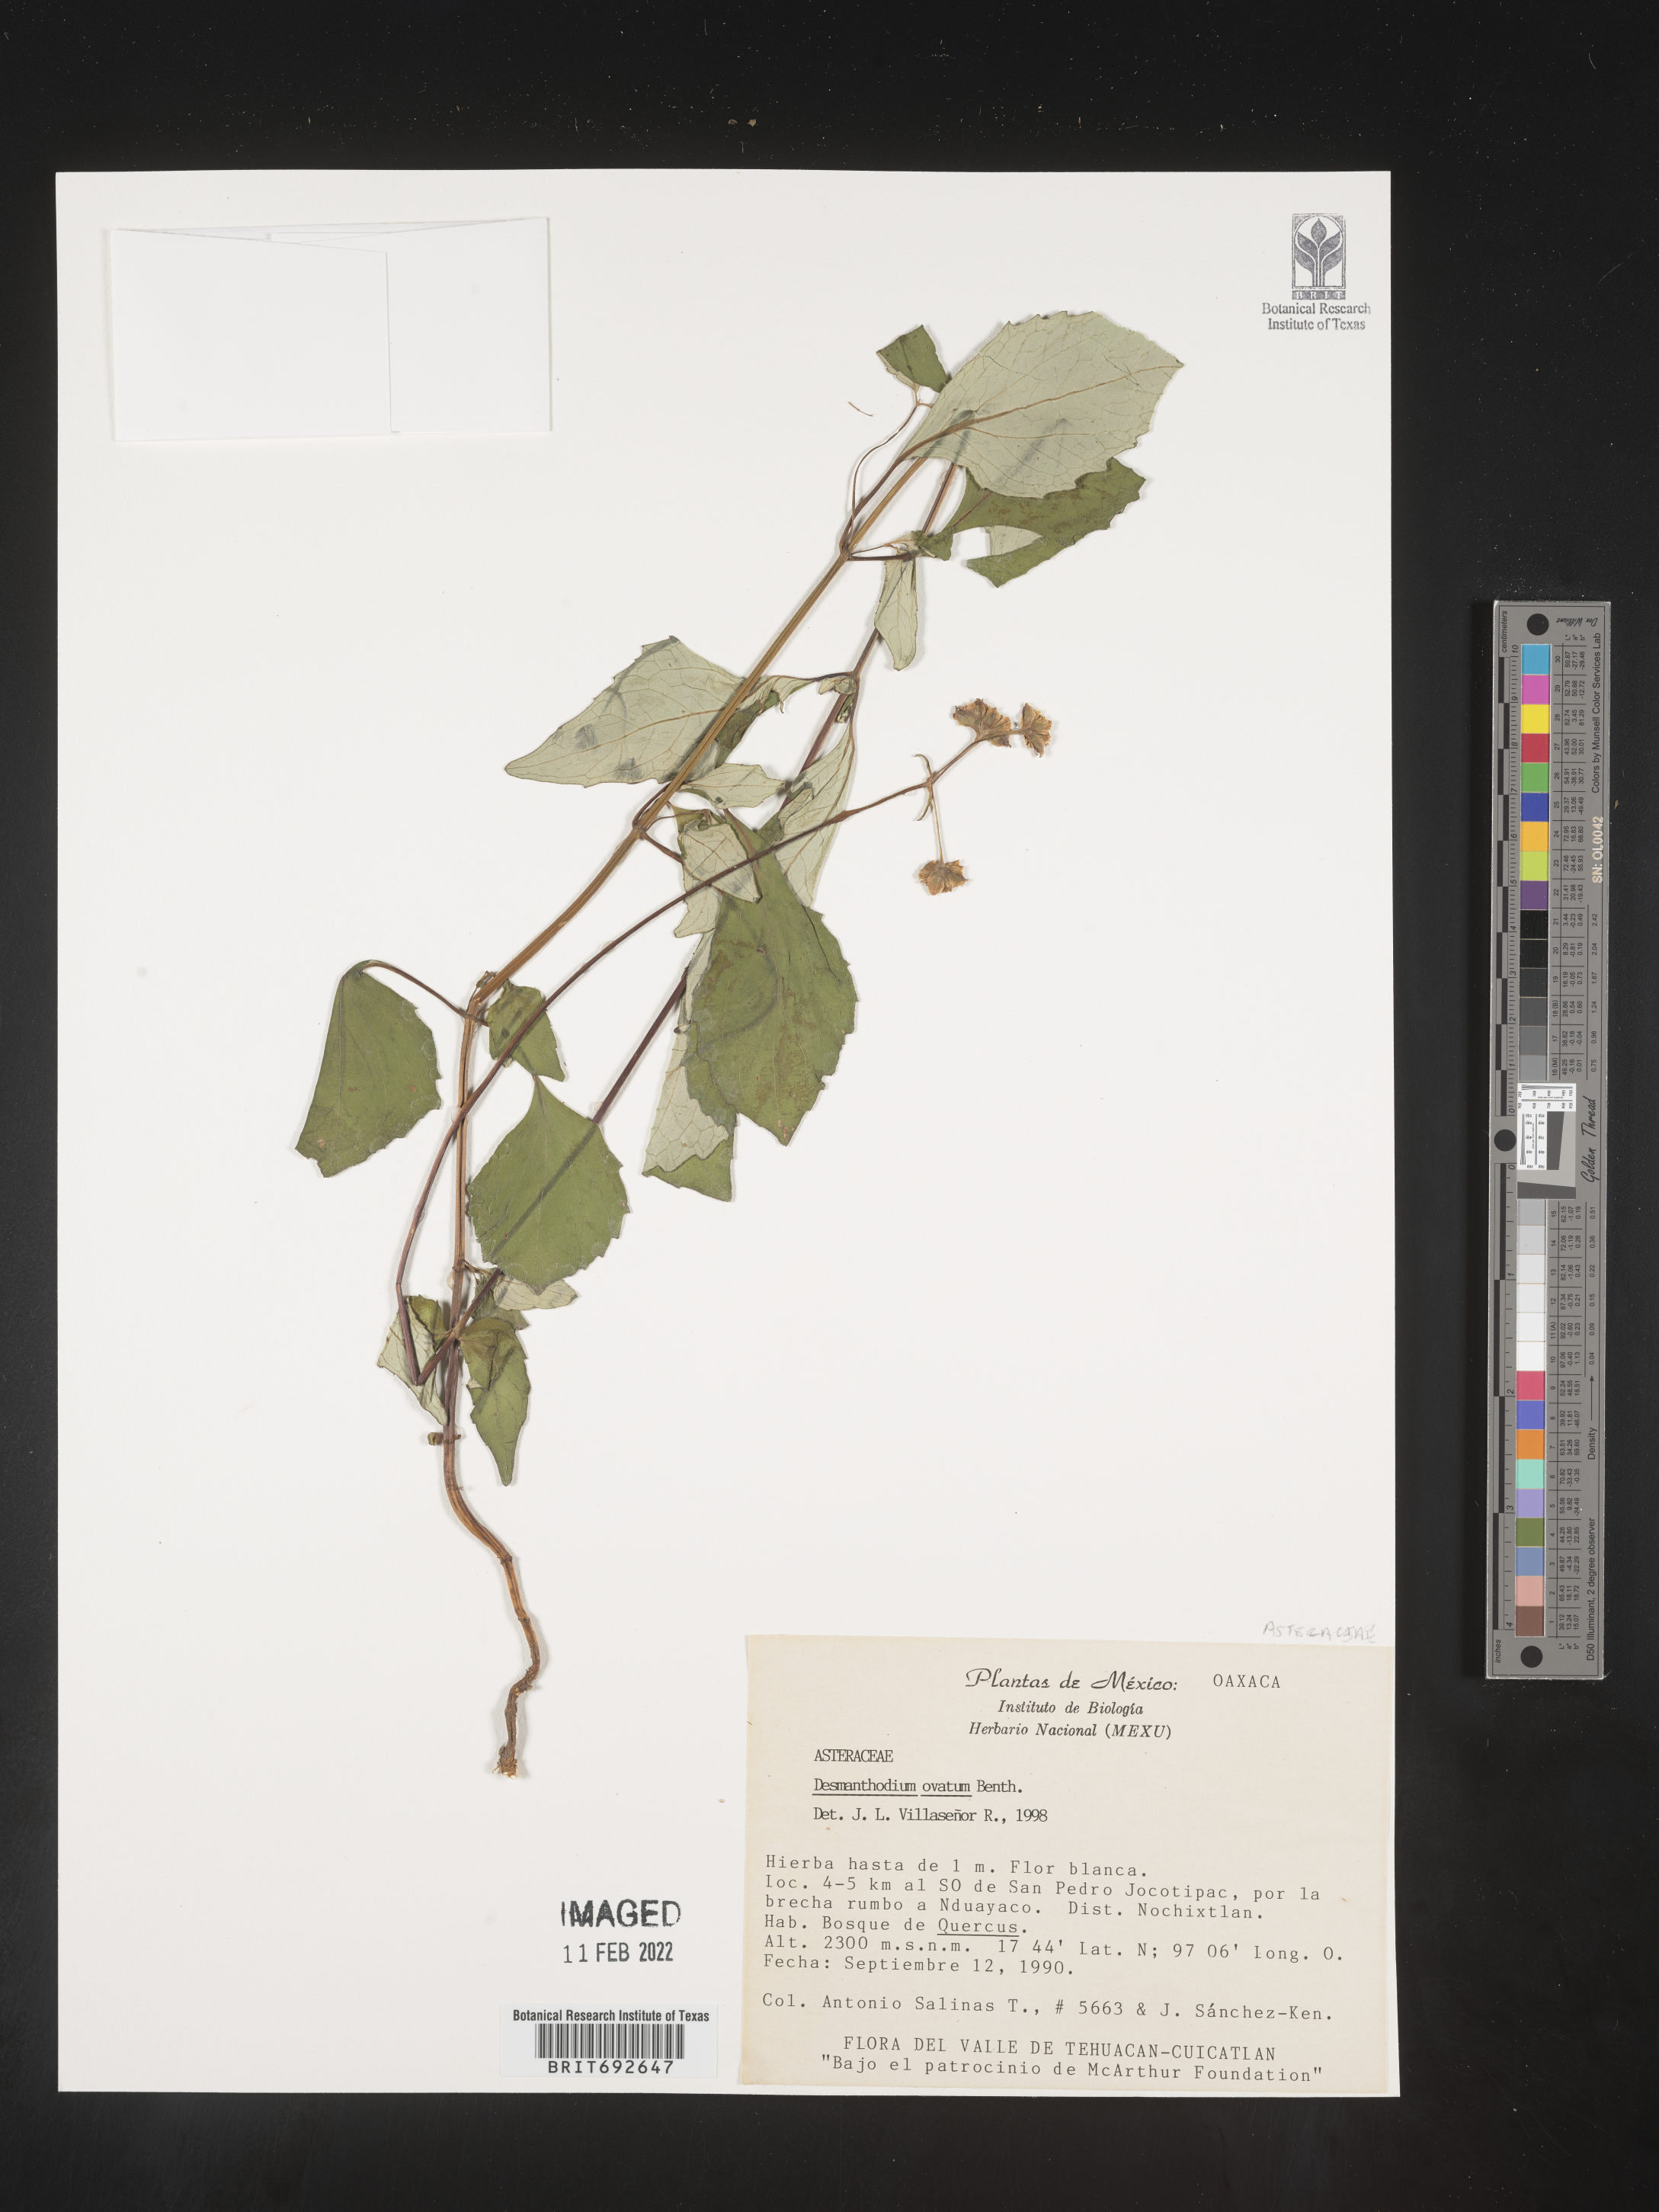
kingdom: Plantae
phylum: Tracheophyta
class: Magnoliopsida
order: Asterales
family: Asteraceae
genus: Desmanthodium
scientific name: Desmanthodium
